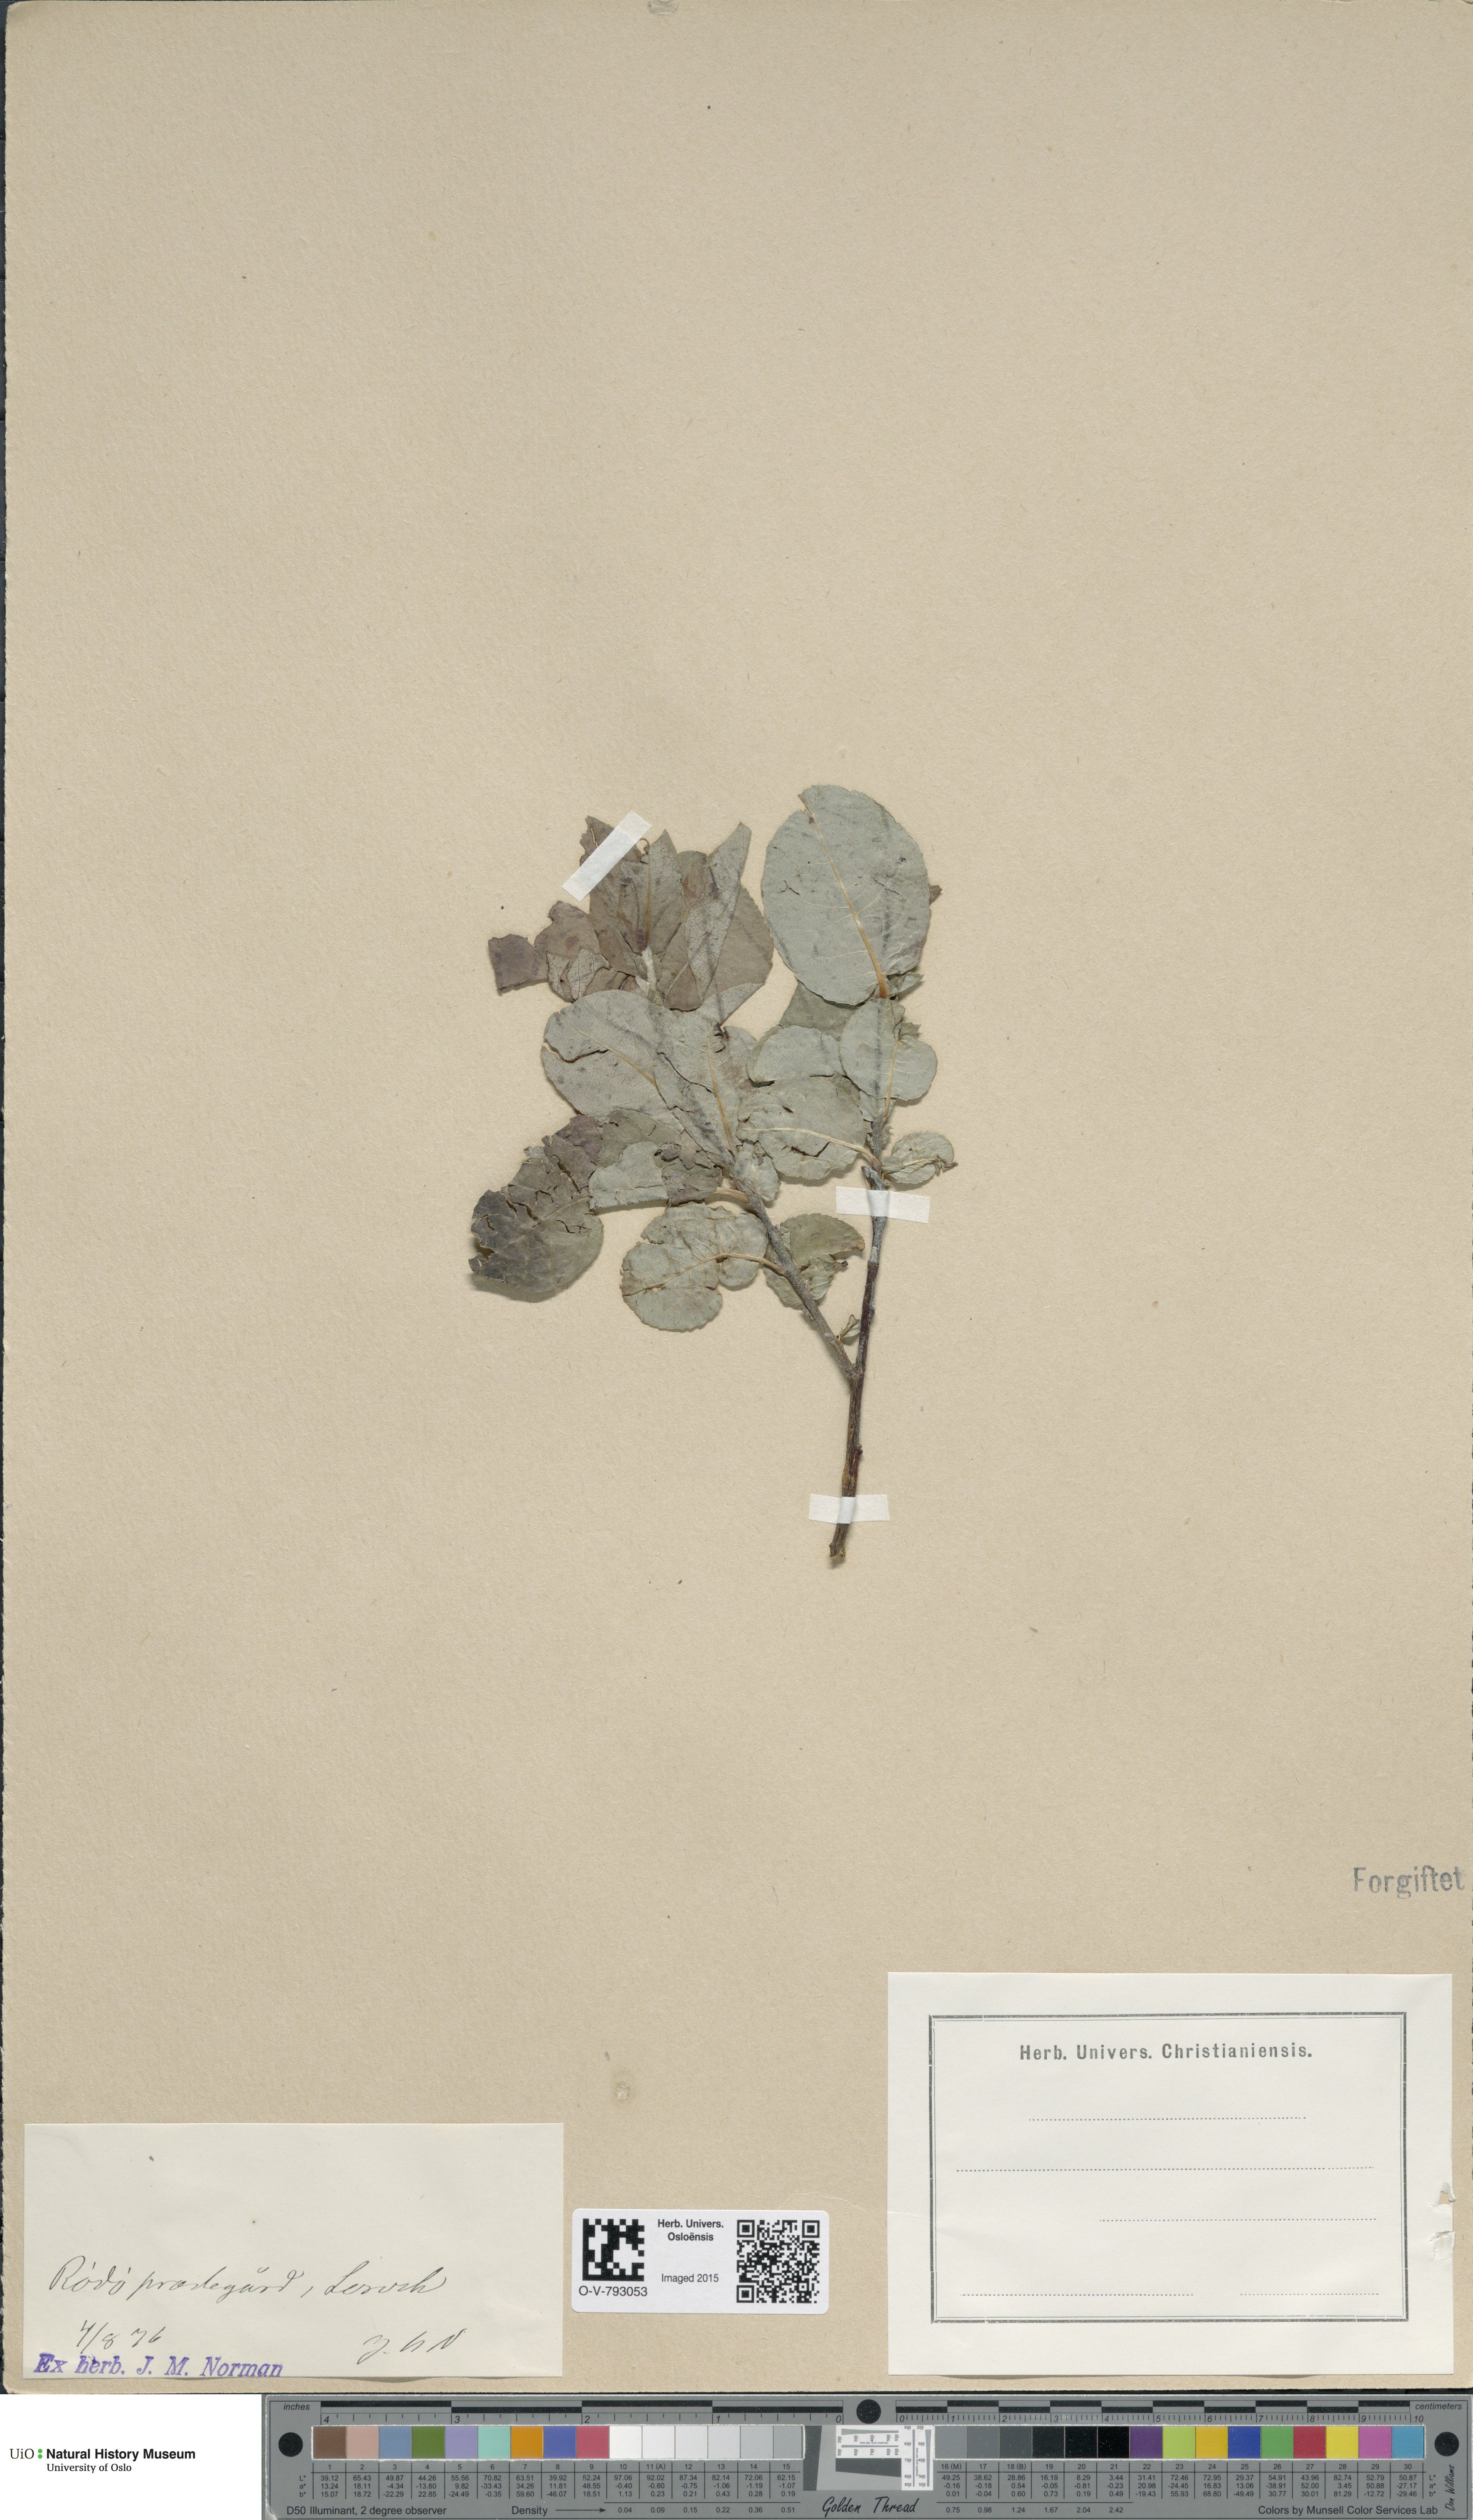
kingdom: Plantae
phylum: Tracheophyta
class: Magnoliopsida
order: Malpighiales
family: Salicaceae
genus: Salix
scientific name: Salix hastata
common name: Halberd willow
